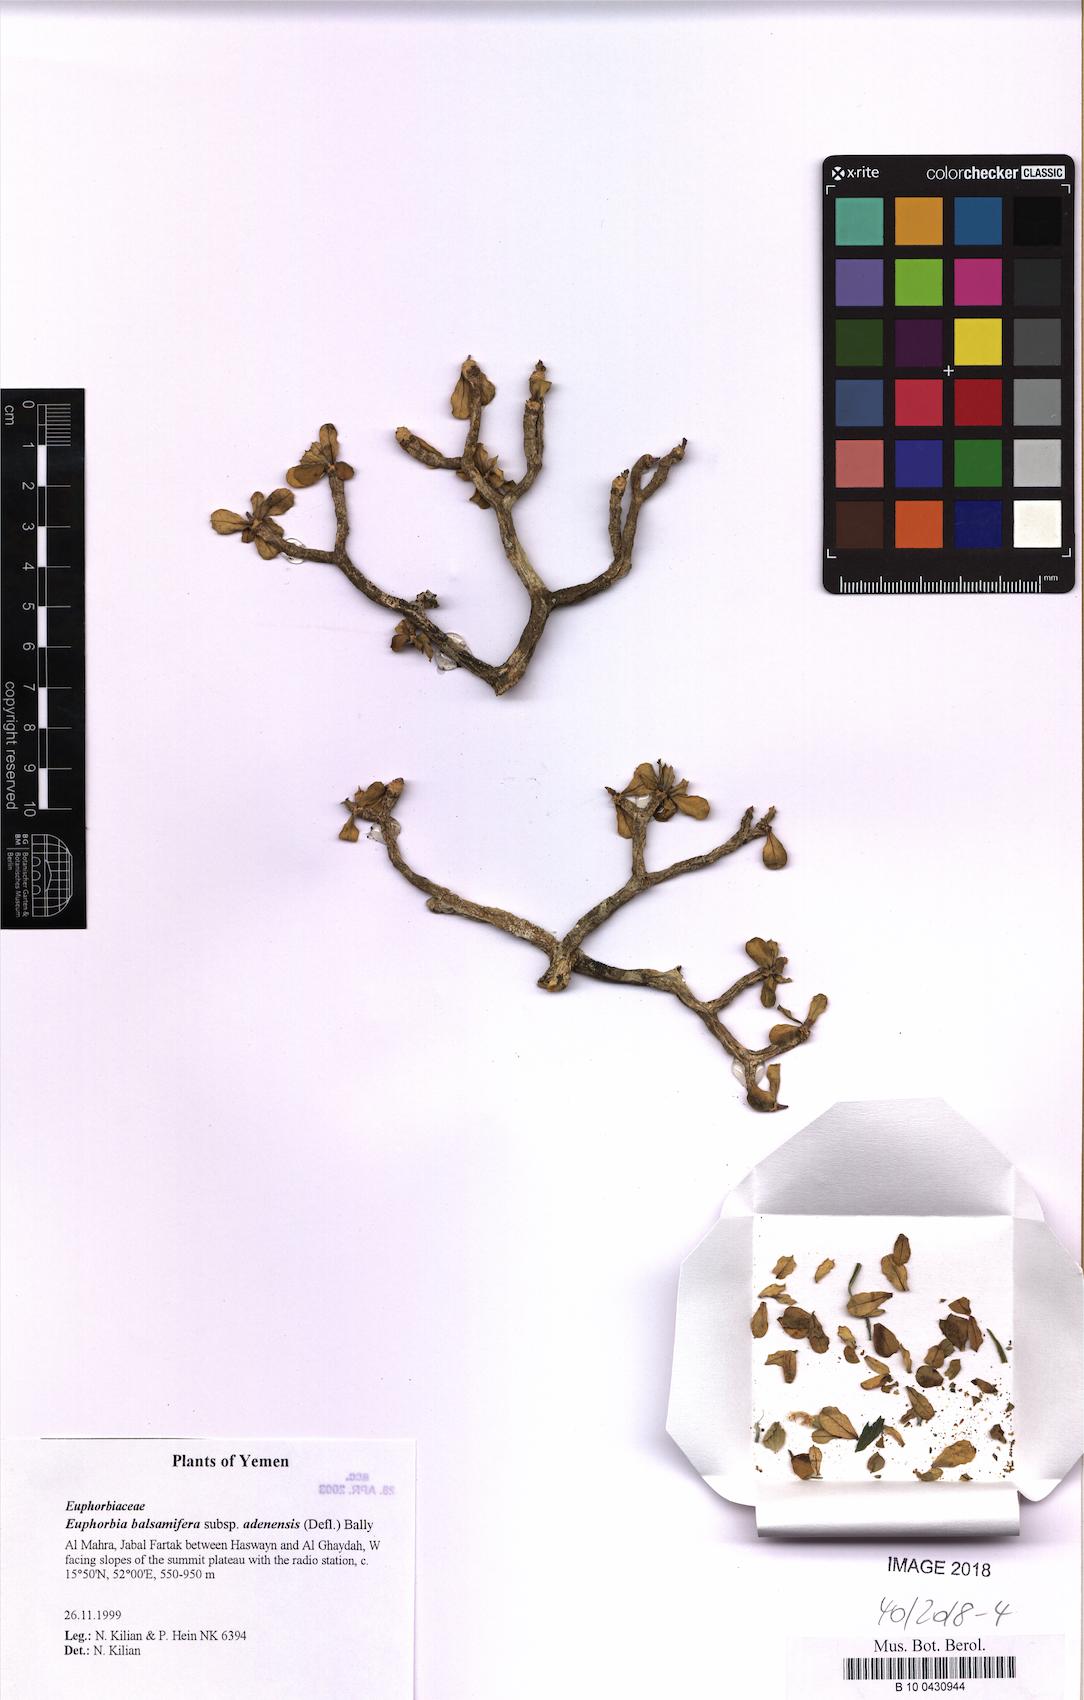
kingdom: Plantae
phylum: Tracheophyta
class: Magnoliopsida
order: Malpighiales
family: Euphorbiaceae
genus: Euphorbia
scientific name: Euphorbia adenensis
